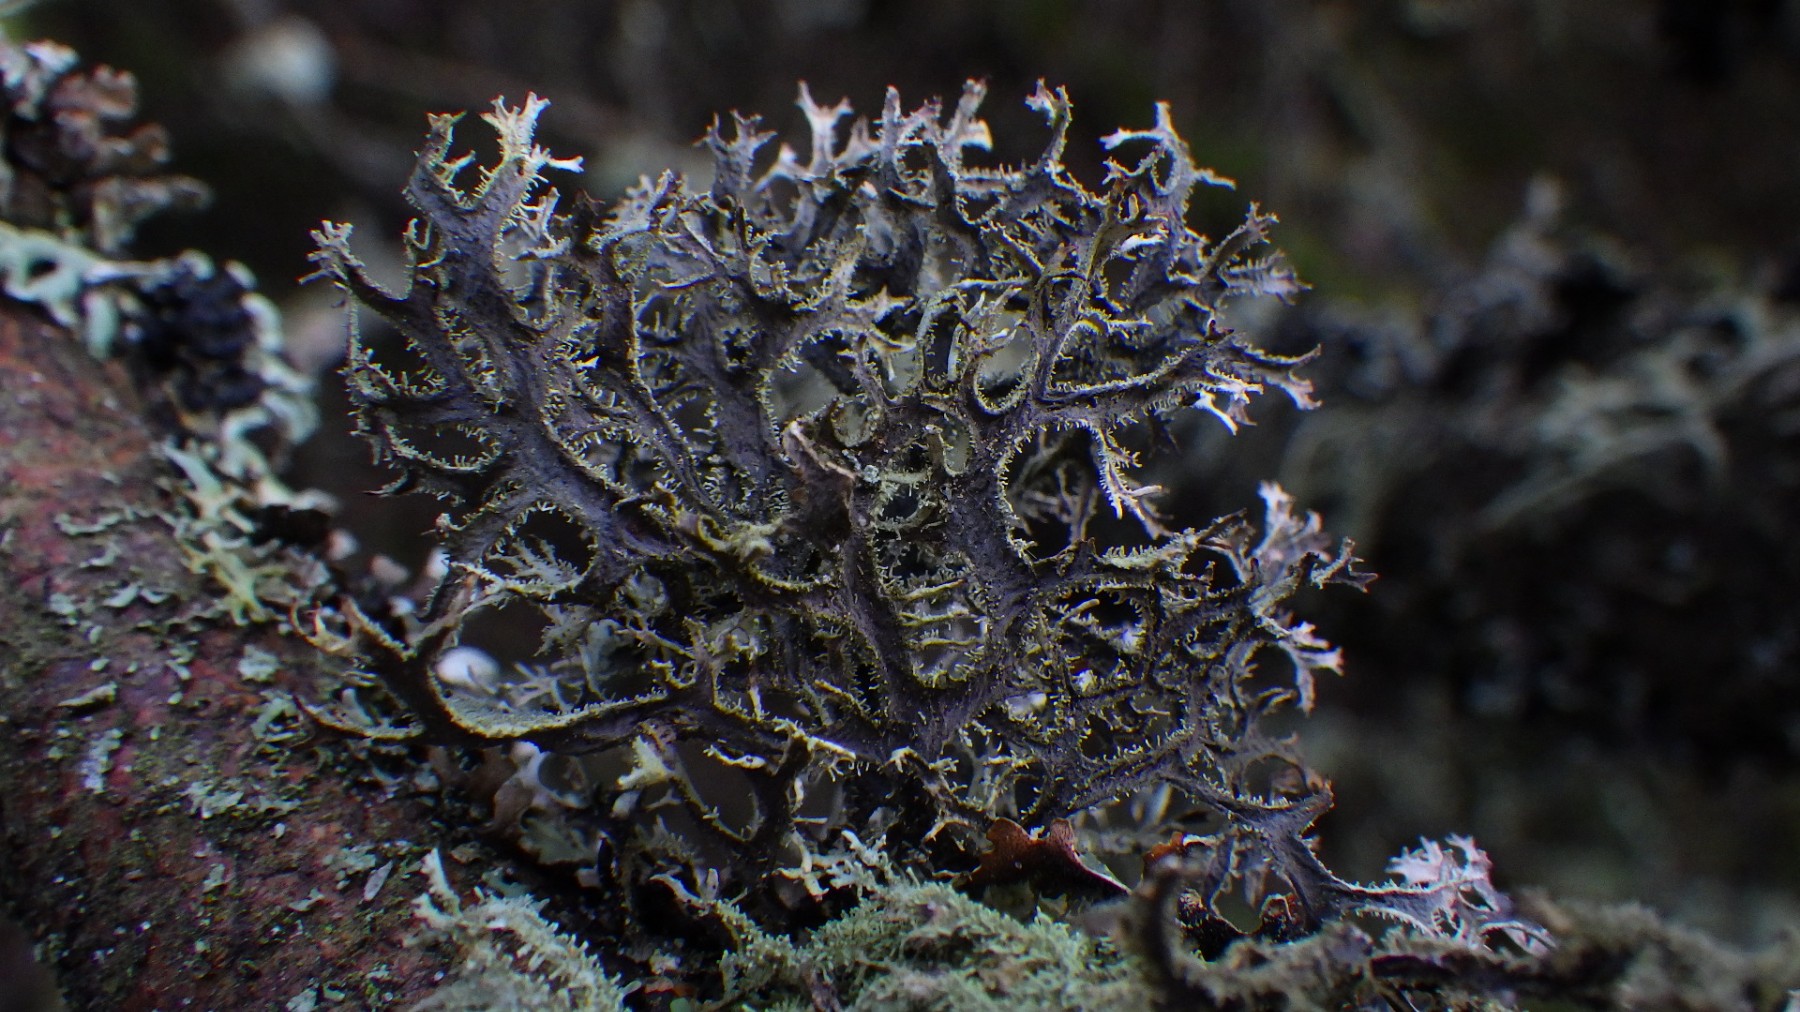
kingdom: Fungi
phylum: Ascomycota
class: Lecanoromycetes
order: Lecanorales
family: Parmeliaceae
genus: Pseudevernia
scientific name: Pseudevernia furfuracea
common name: grå fyrrelav
